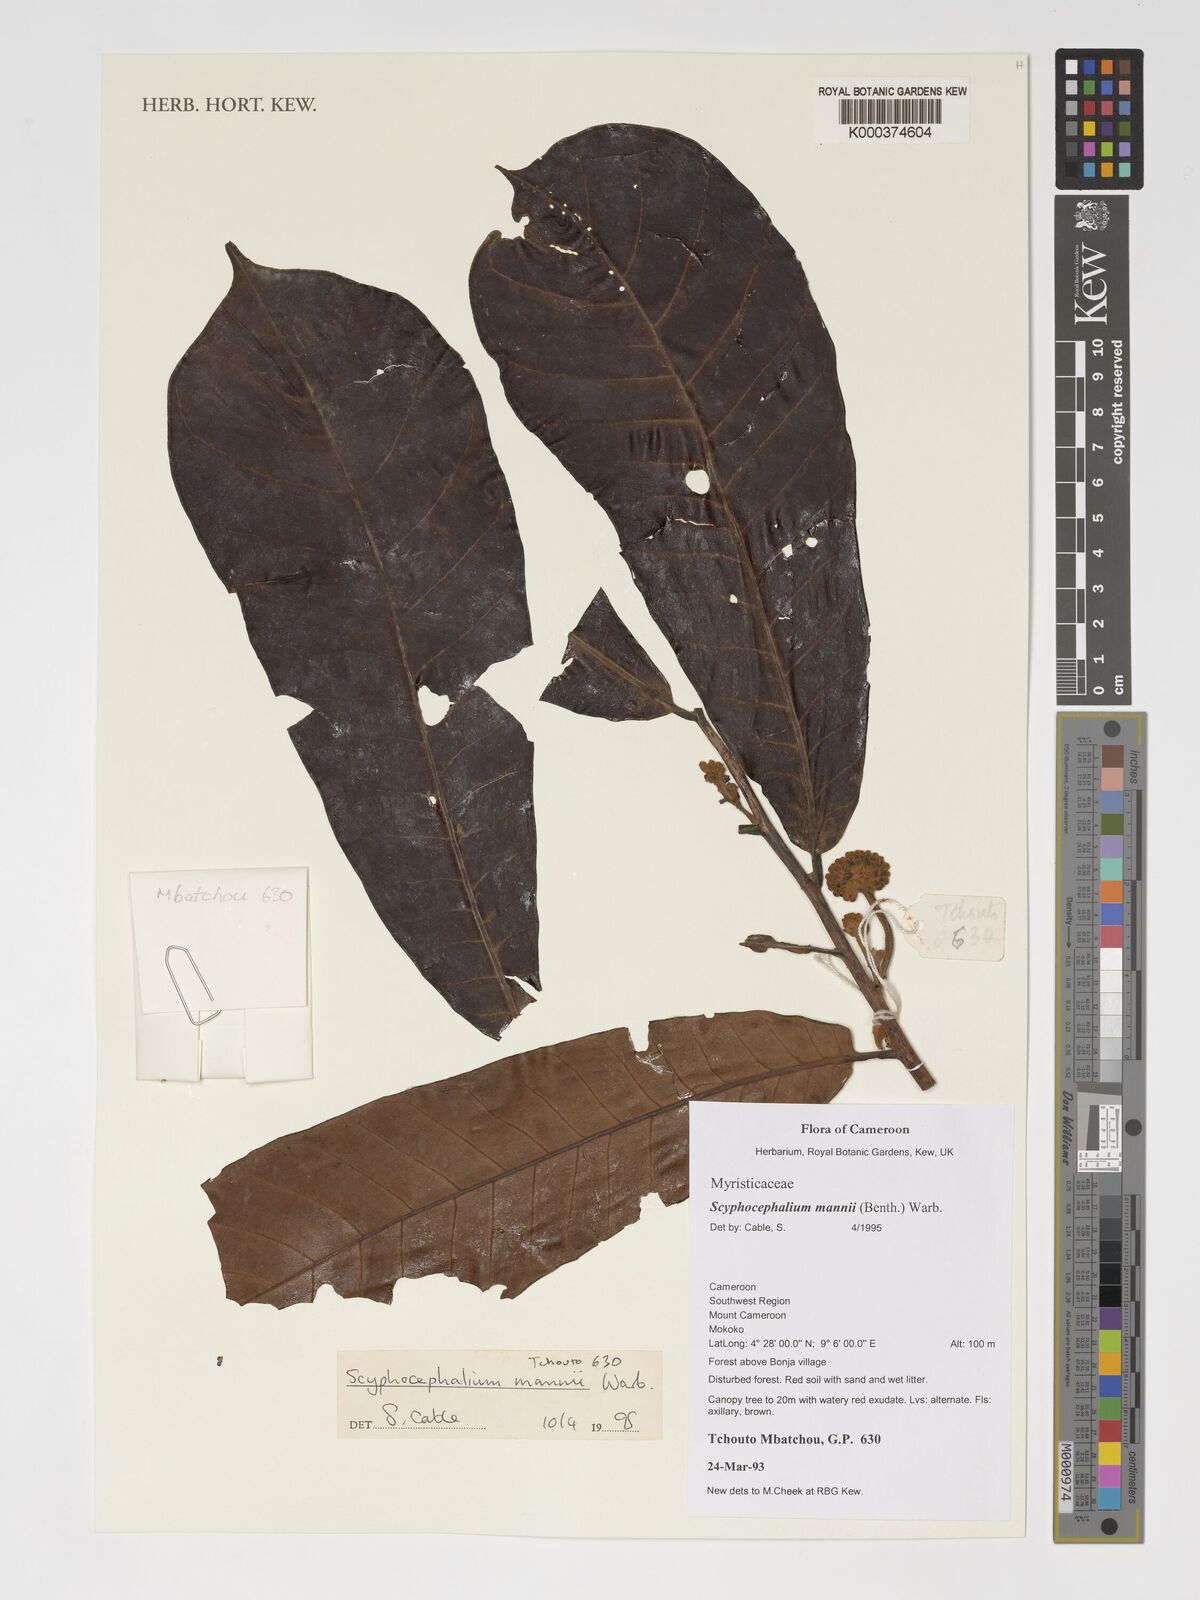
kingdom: Plantae
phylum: Tracheophyta
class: Magnoliopsida
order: Magnoliales
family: Myristicaceae
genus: Scyphocephalum
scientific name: Scyphocephalum mannii
